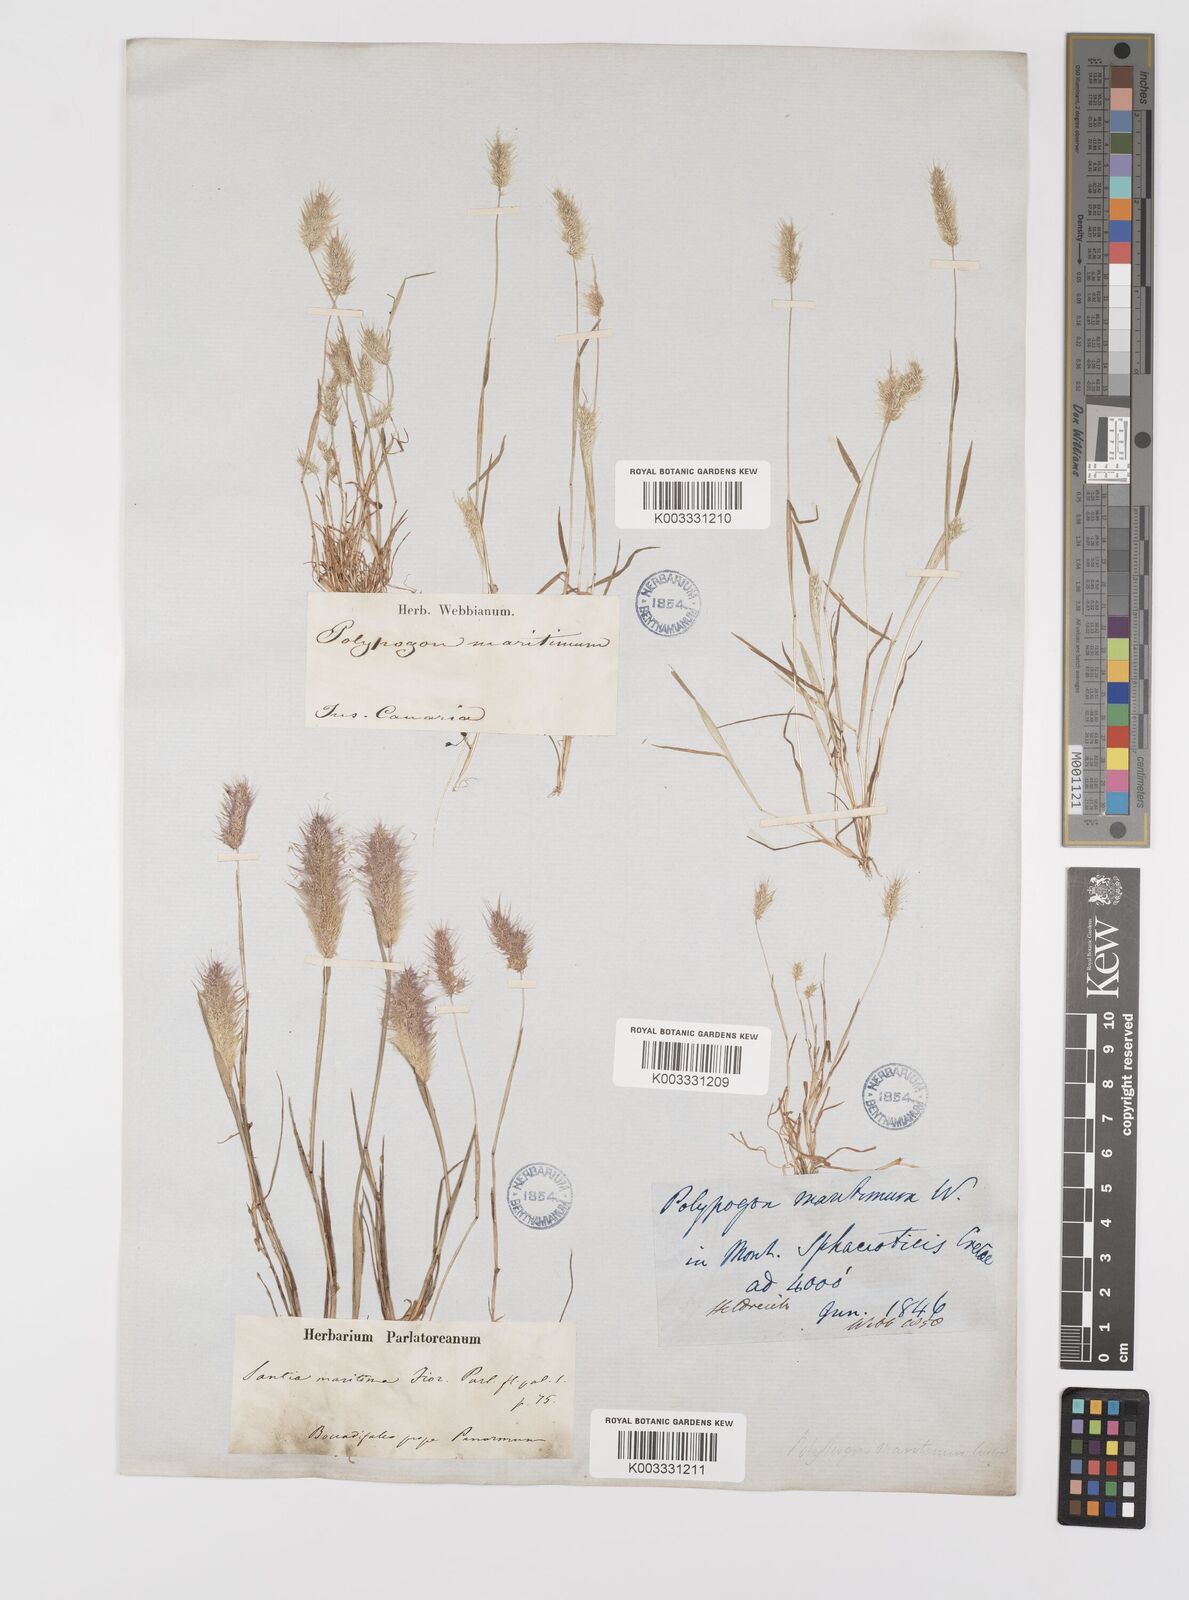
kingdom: Plantae
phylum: Tracheophyta
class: Liliopsida
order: Poales
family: Poaceae
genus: Polypogon
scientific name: Polypogon maritimus
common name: Mediterranean rabbitsfoot grass
